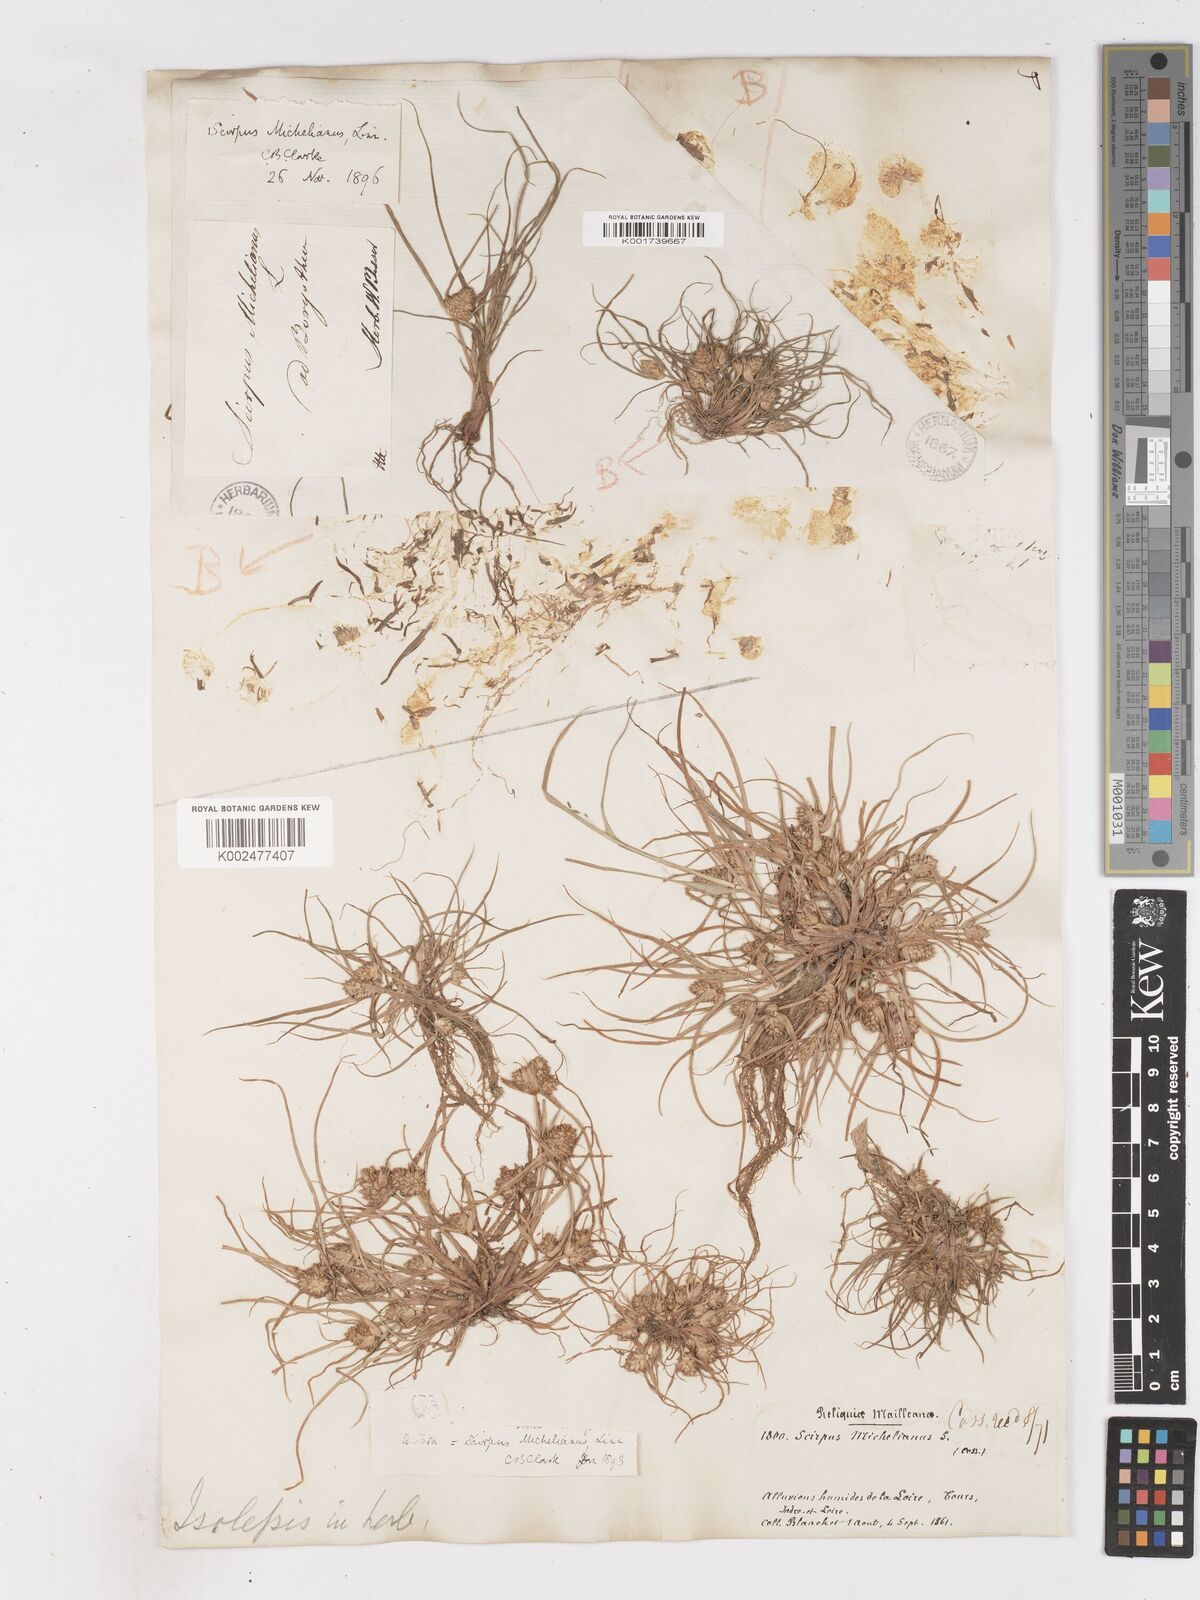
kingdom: Plantae
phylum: Tracheophyta
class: Liliopsida
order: Poales
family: Cyperaceae
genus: Cyperus
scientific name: Cyperus michelianus
